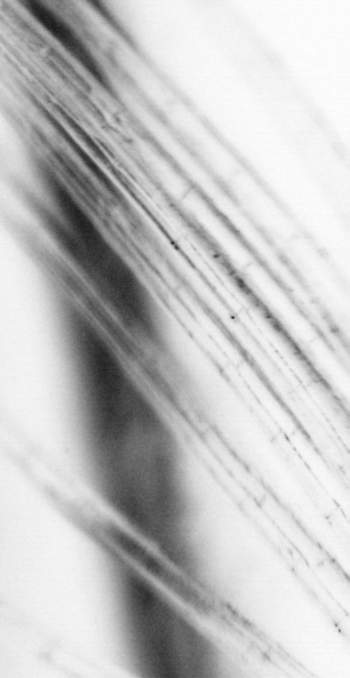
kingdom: Animalia
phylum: Chordata
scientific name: Chordata
